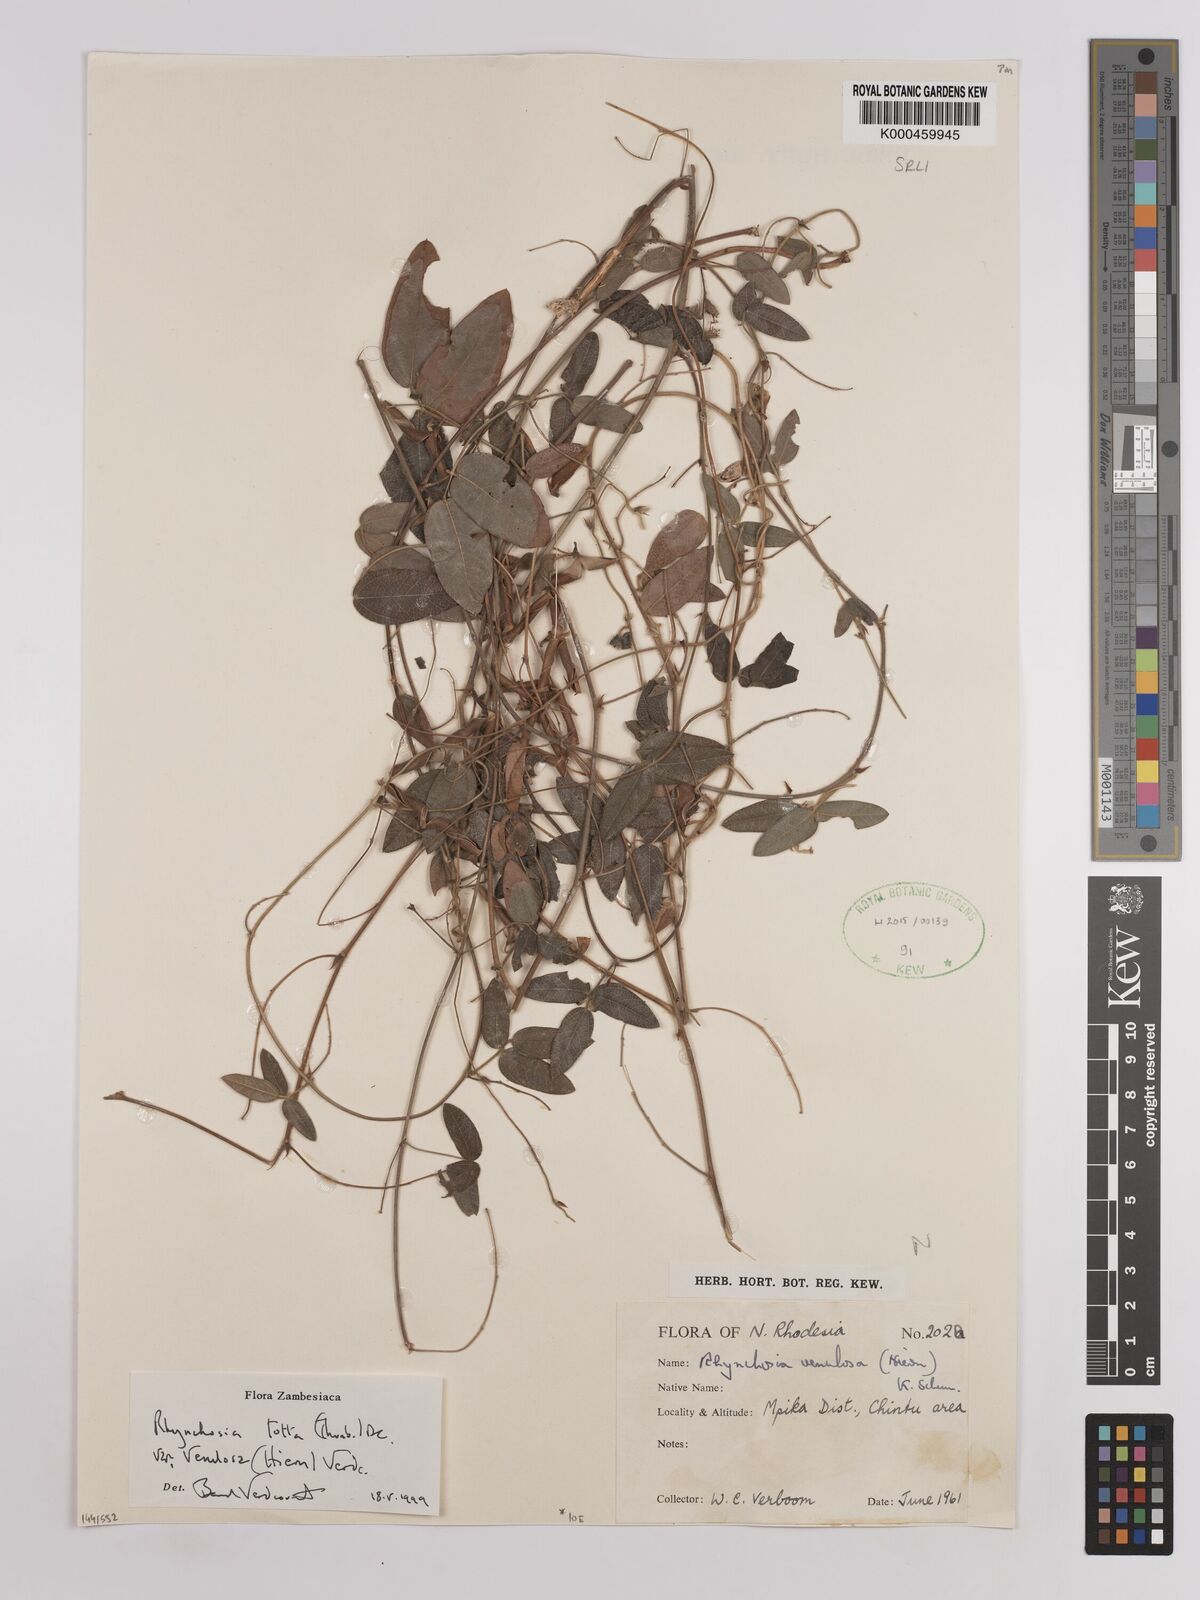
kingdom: Plantae
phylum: Tracheophyta
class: Magnoliopsida
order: Fabales
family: Fabaceae
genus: Rhynchosia
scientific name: Rhynchosia totta
